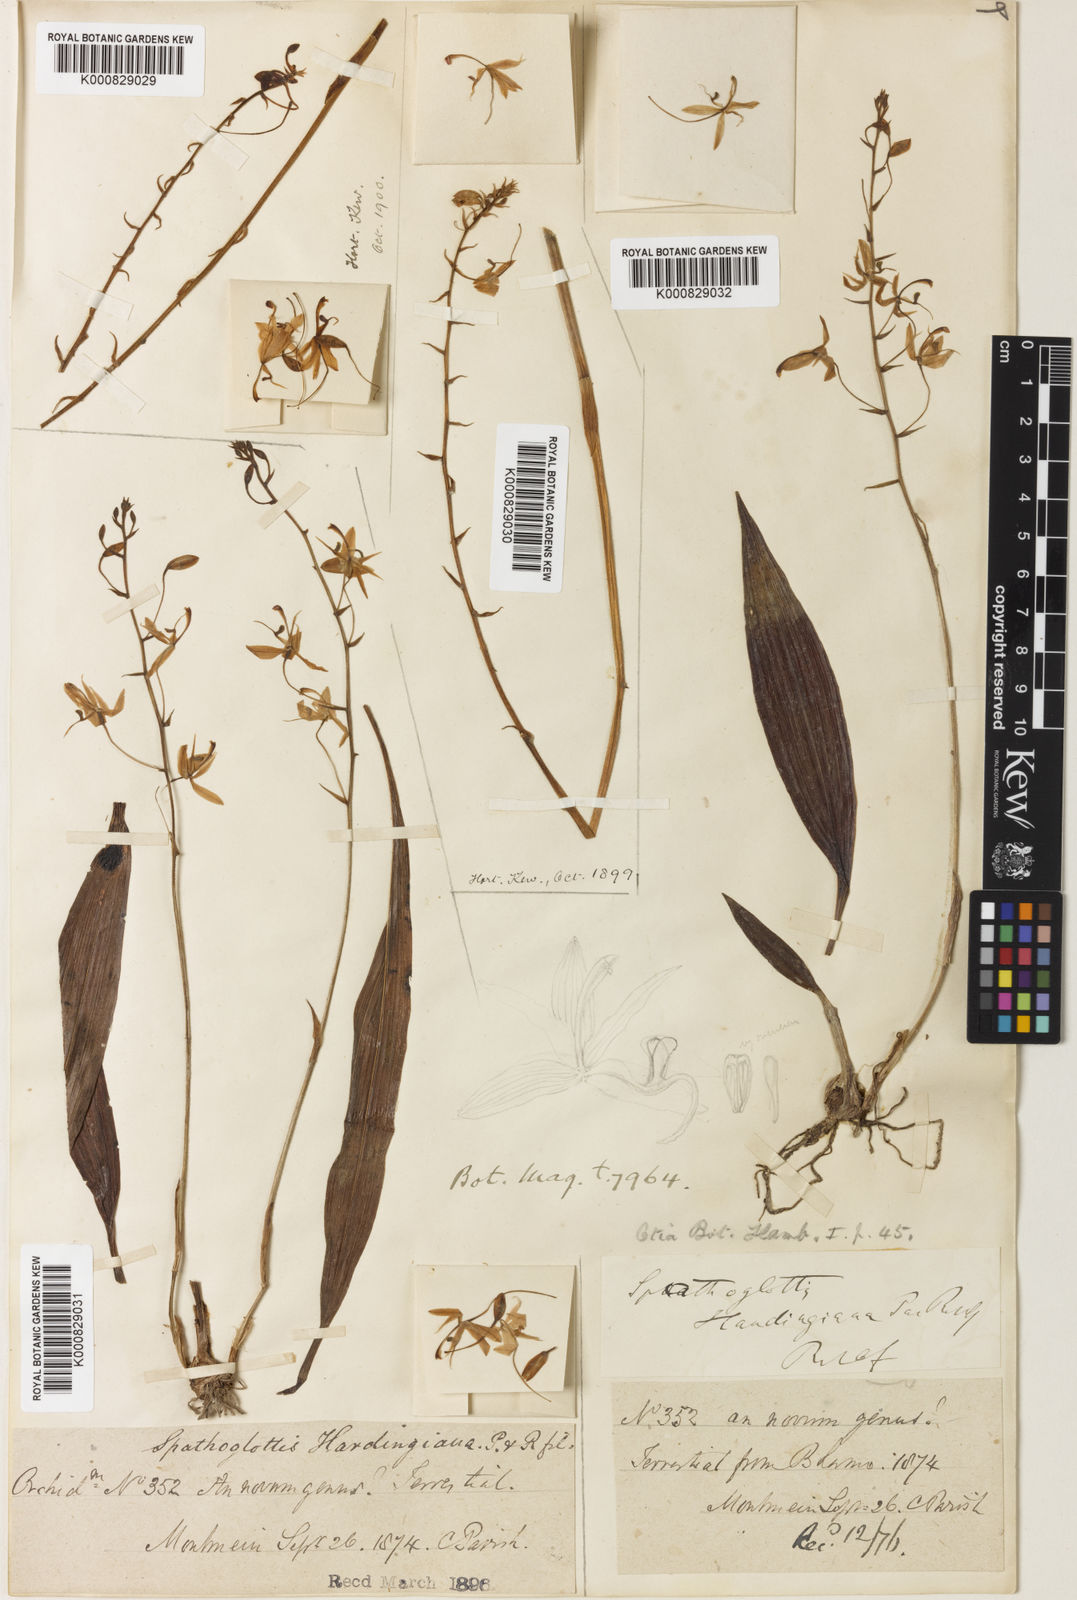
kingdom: Plantae
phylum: Tracheophyta
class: Liliopsida
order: Asparagales
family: Orchidaceae
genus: Spathoglottis
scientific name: Spathoglottis hardingiana
